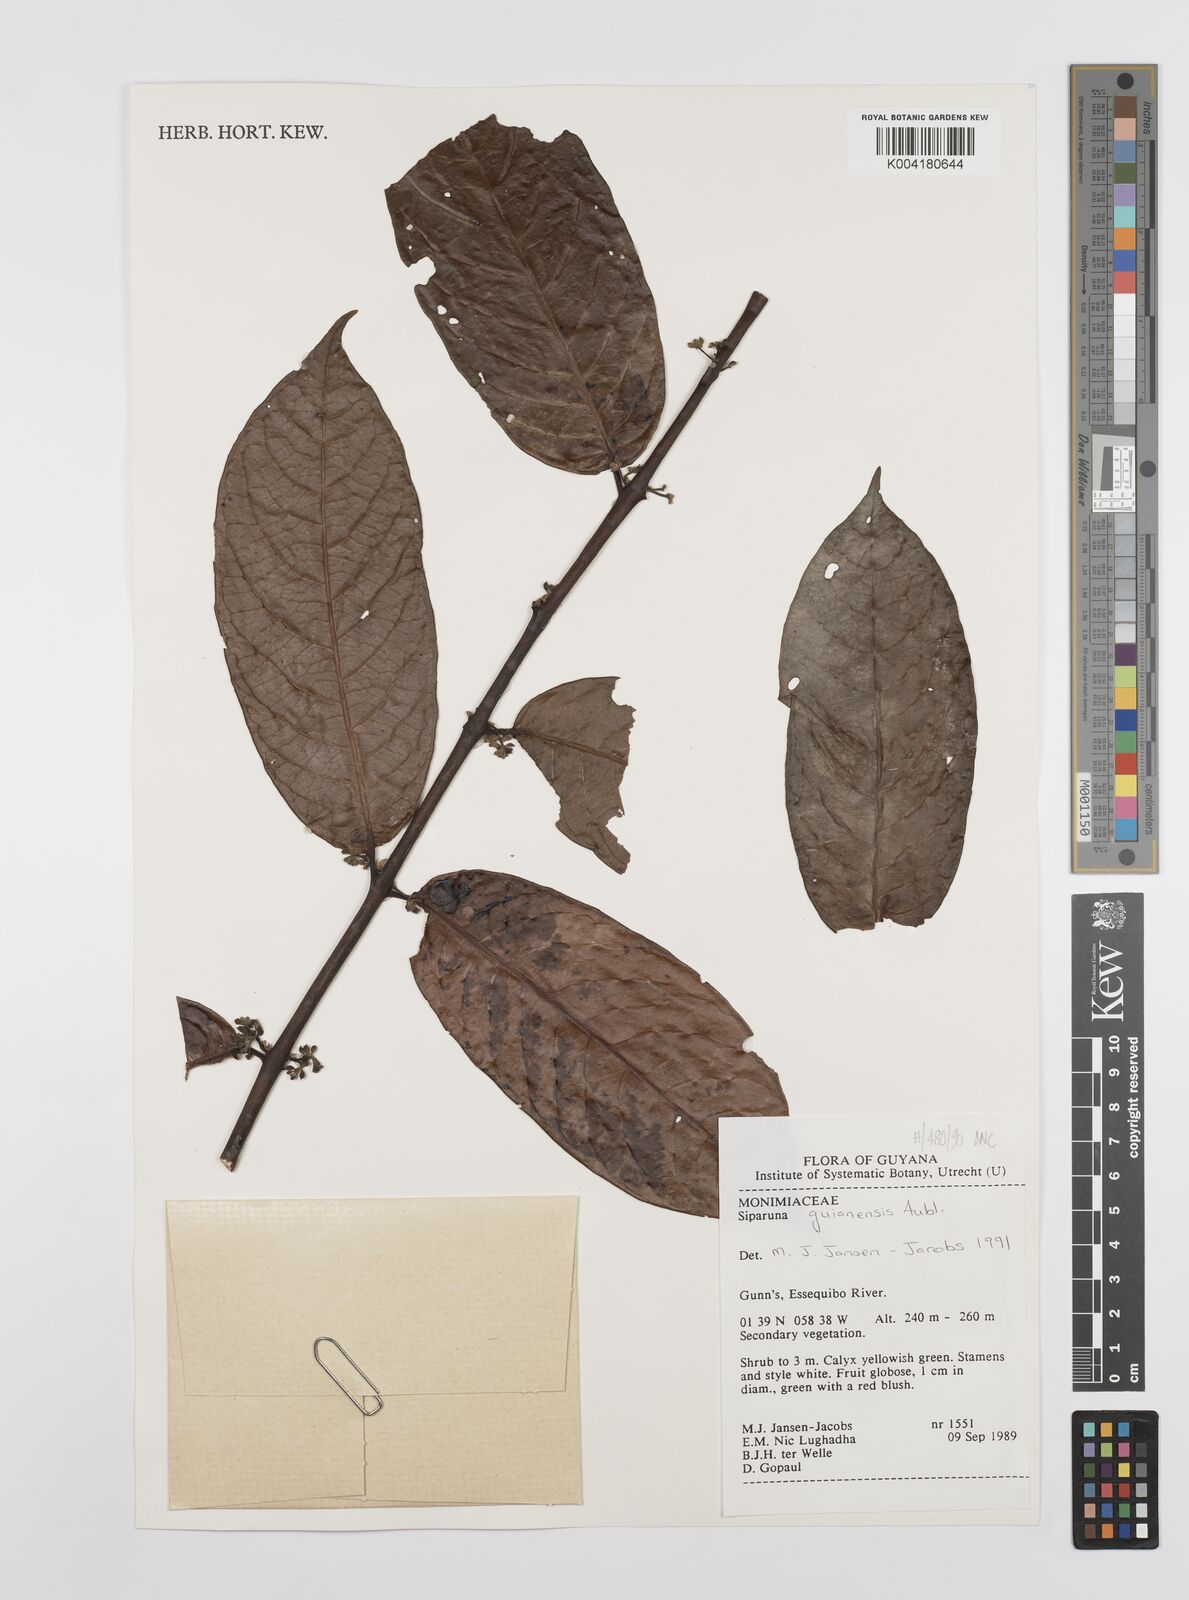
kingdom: Plantae
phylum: Tracheophyta
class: Magnoliopsida
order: Laurales
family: Siparunaceae
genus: Siparuna
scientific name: Siparuna guianensis
